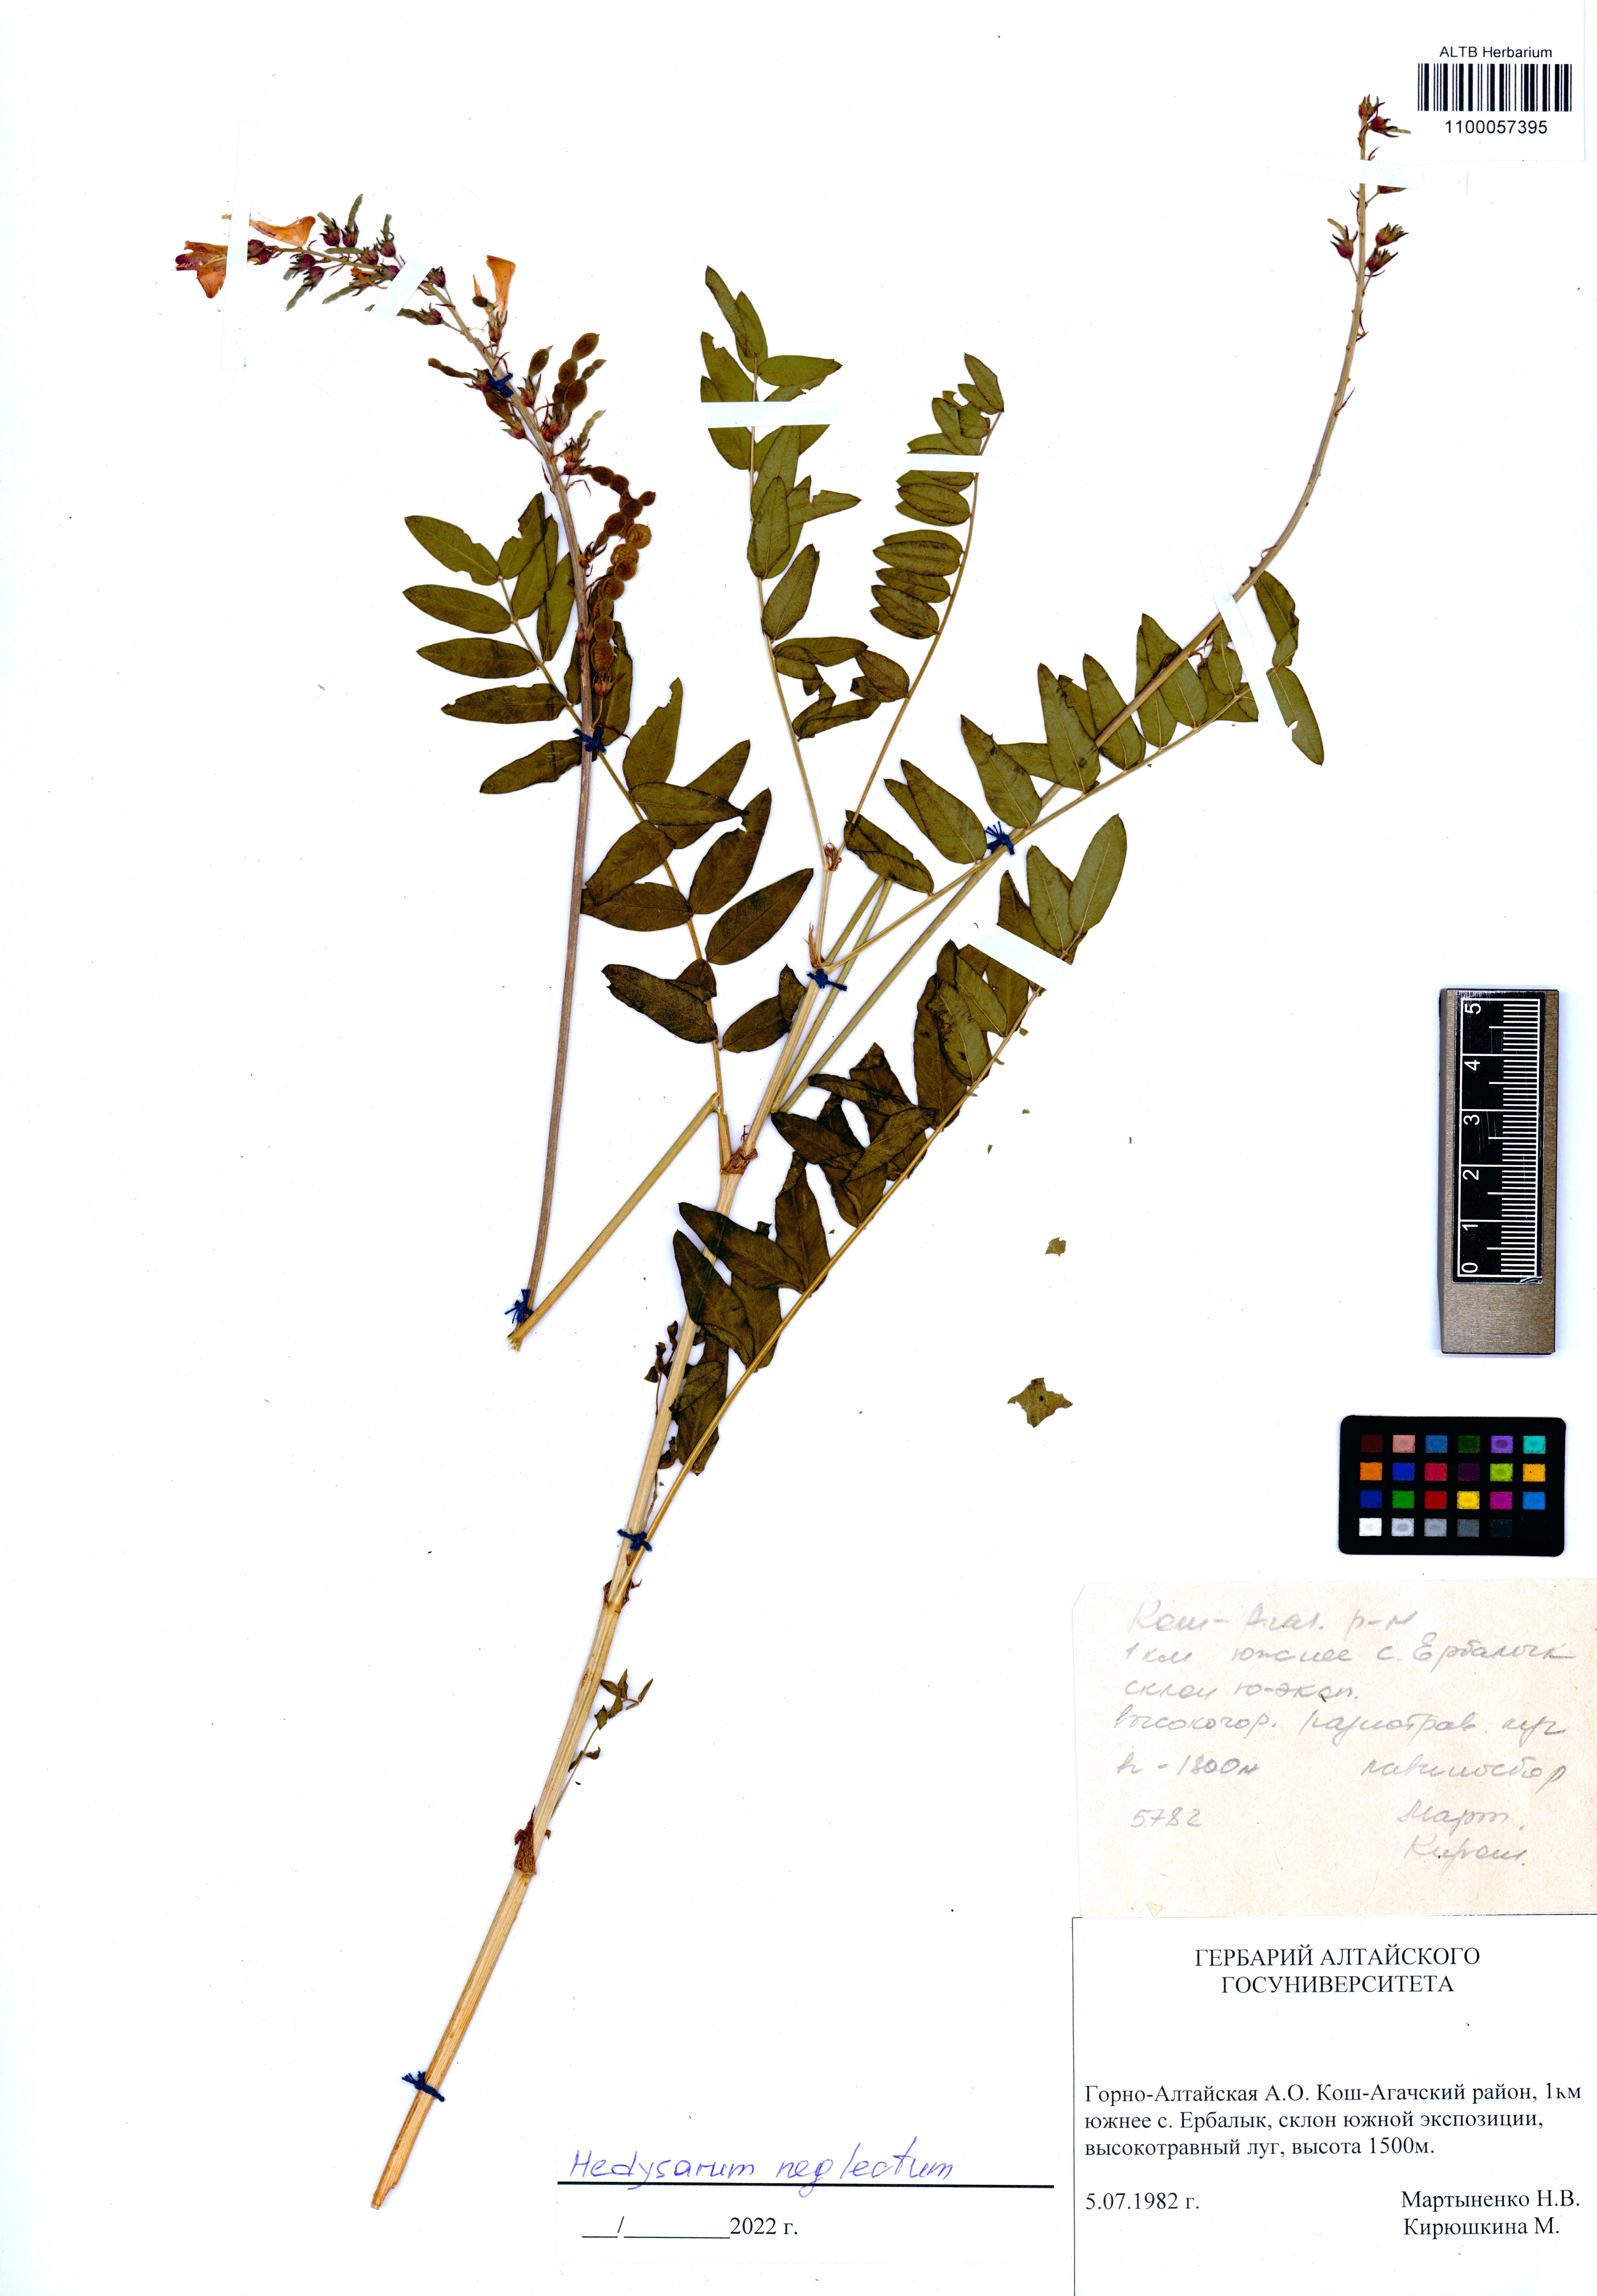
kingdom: Plantae
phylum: Tracheophyta
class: Magnoliopsida
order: Fabales
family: Fabaceae
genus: Hedysarum
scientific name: Hedysarum neglectum
